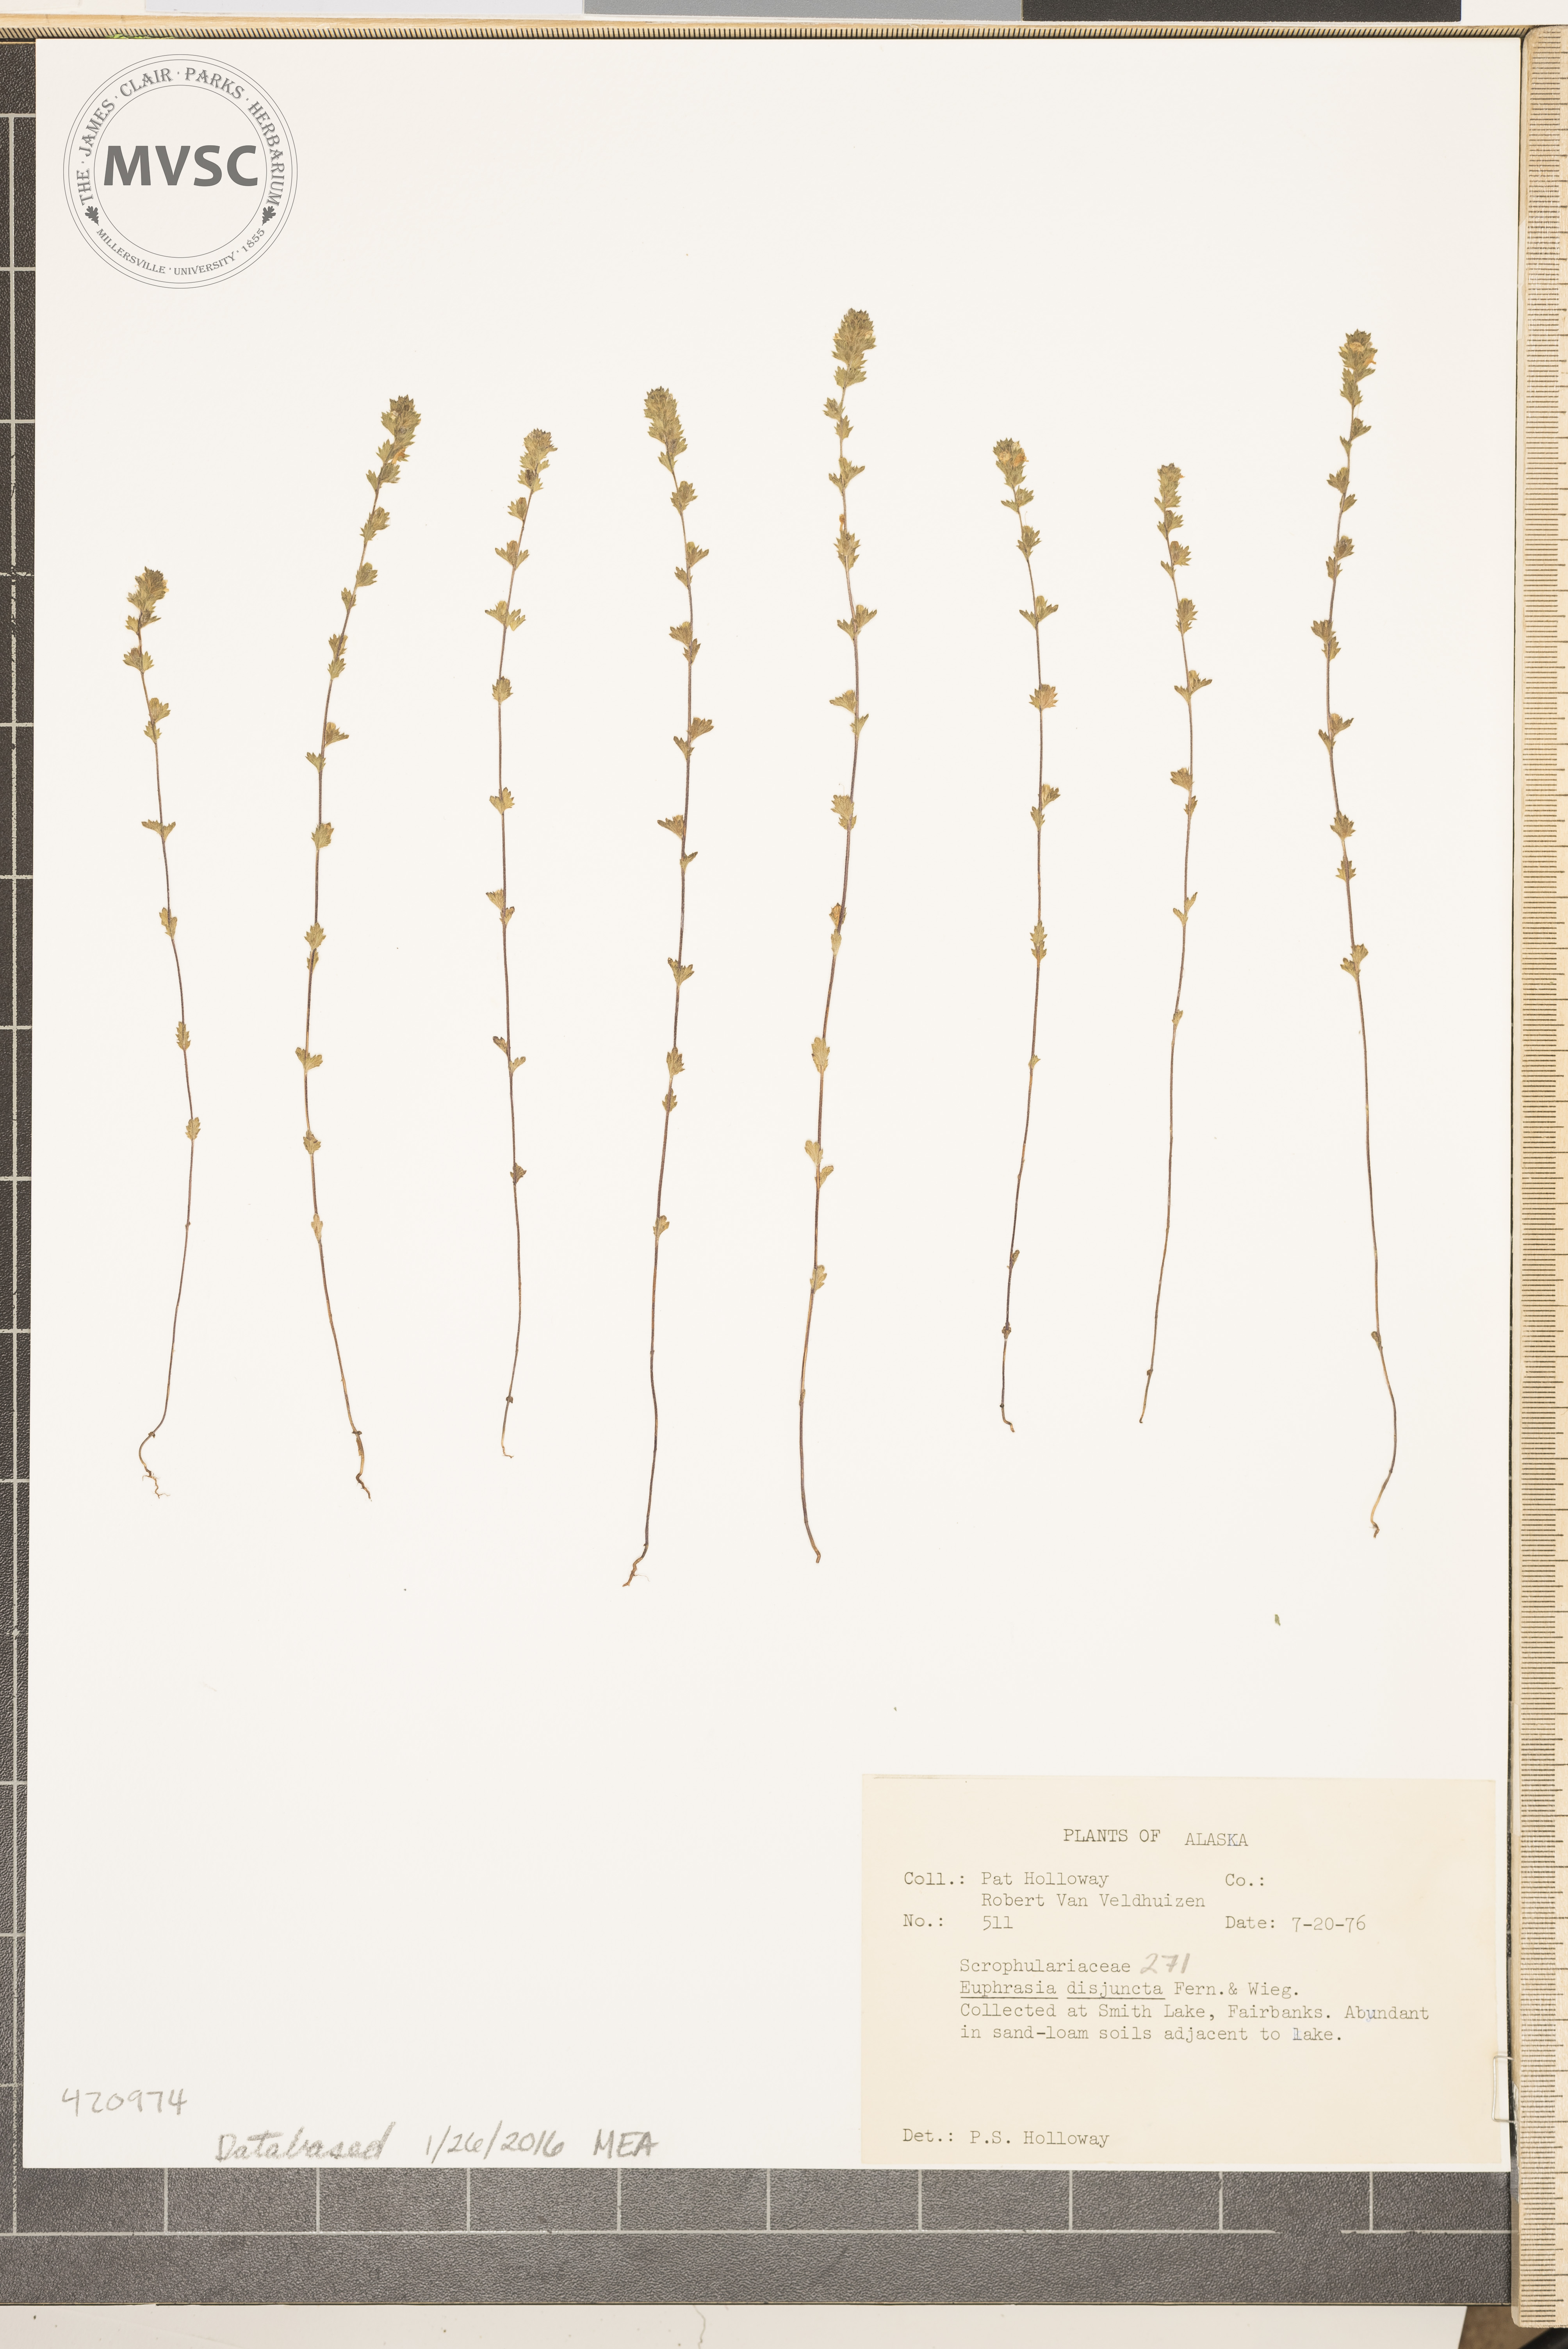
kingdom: Plantae
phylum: Tracheophyta
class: Magnoliopsida
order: Lamiales
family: Orobanchaceae
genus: Euphrasia
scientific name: Euphrasia disjuncta
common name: polar eyebright
